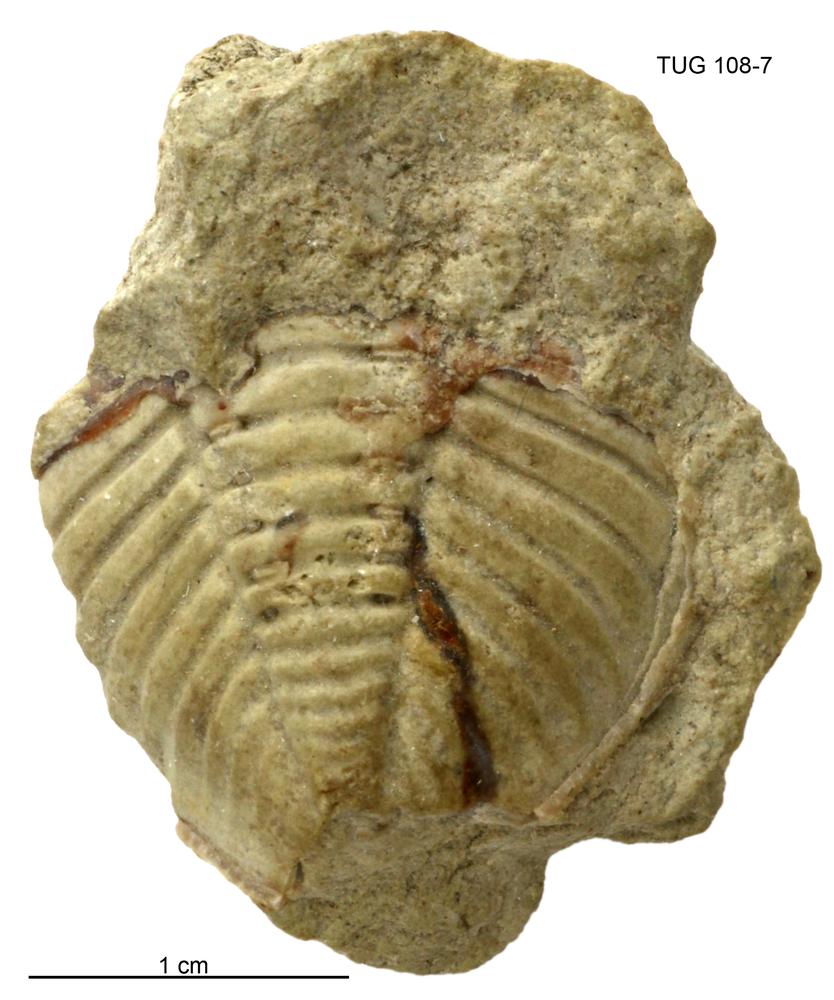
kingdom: Animalia
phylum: Arthropoda
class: Trilobita
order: Phacopida
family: Pterygometopidae
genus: Valdariops
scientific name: Valdariops eichwaldi
